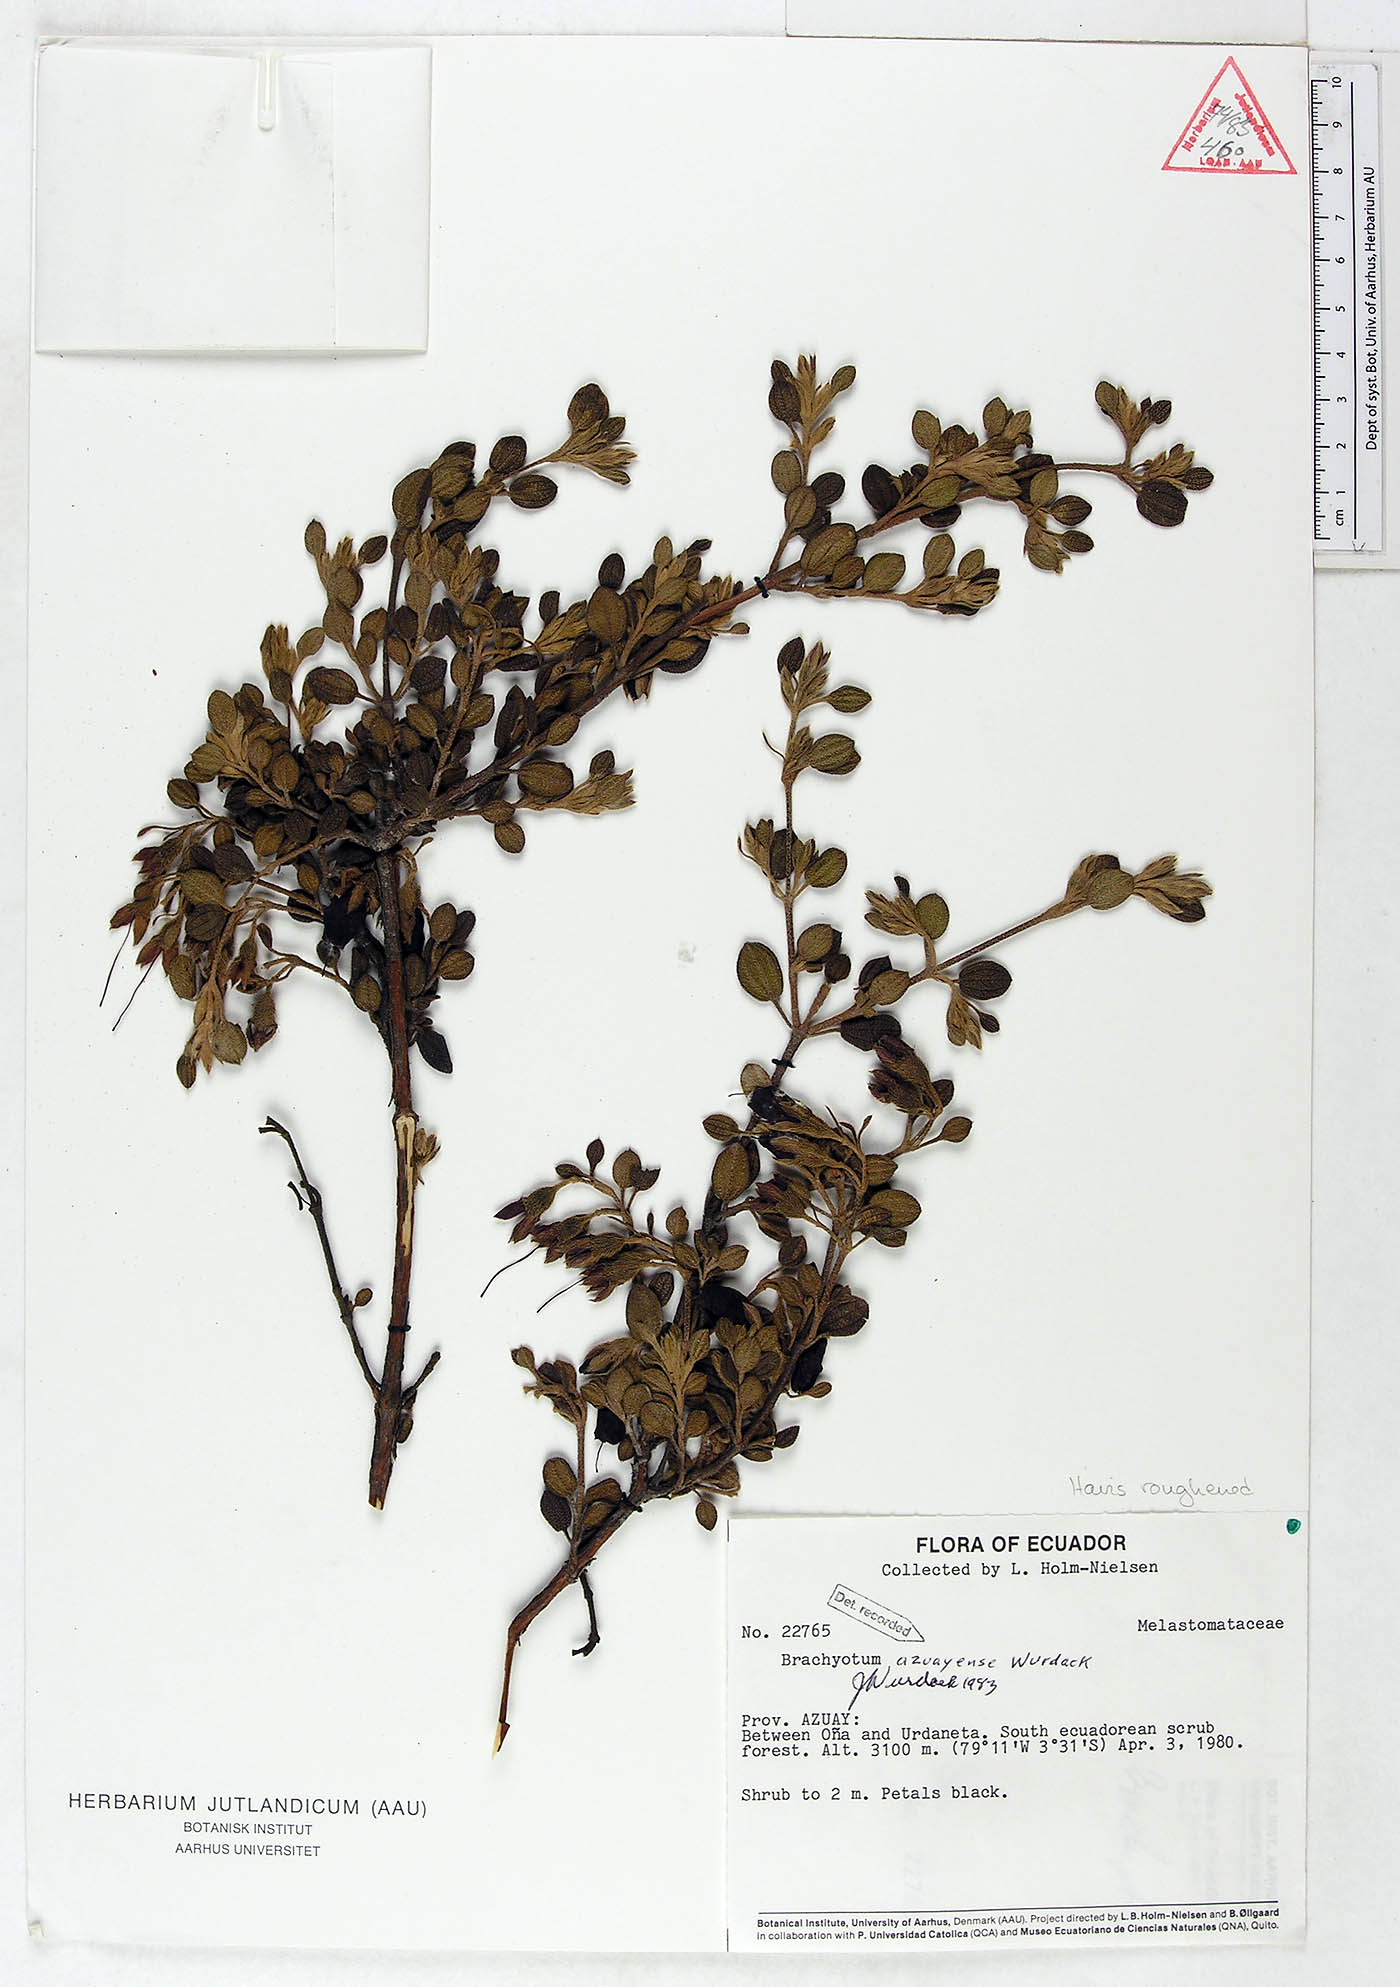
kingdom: Plantae
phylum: Tracheophyta
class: Magnoliopsida
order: Myrtales
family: Melastomataceae
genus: Brachyotum
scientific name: Brachyotum azuayense
